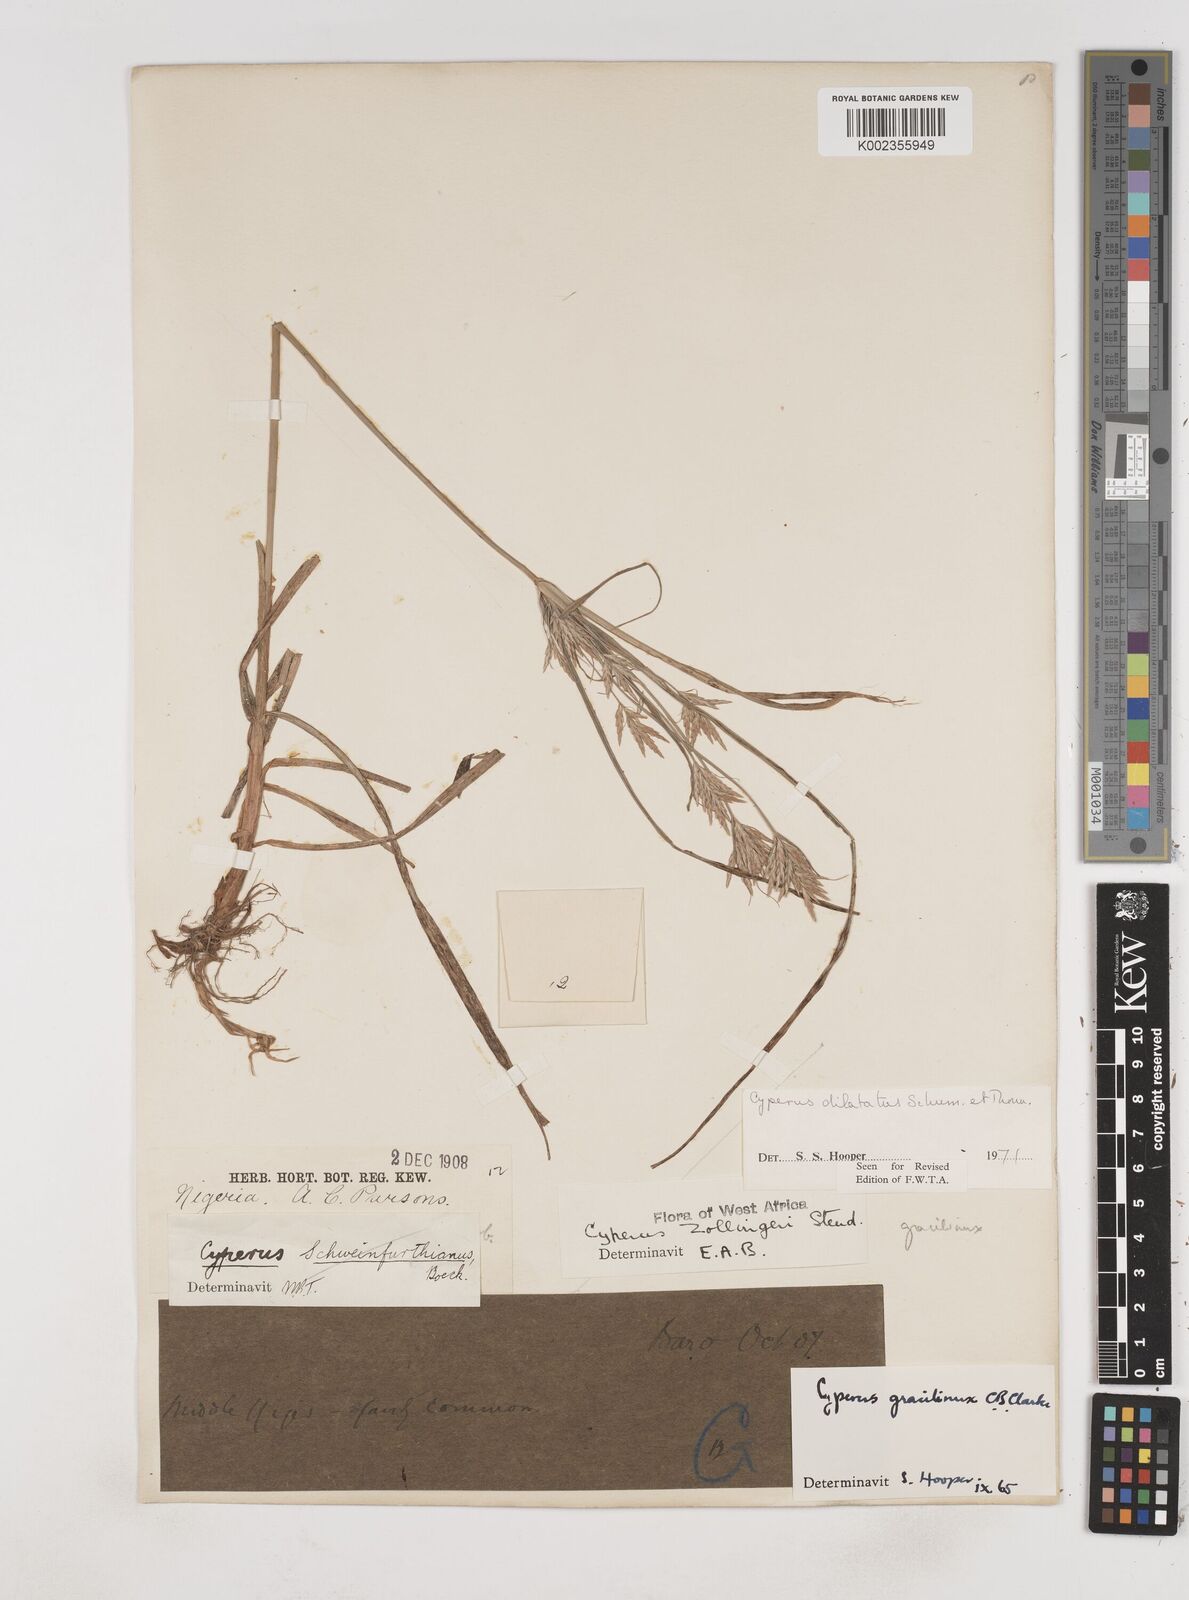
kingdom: Plantae
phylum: Tracheophyta
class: Liliopsida
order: Poales
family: Cyperaceae
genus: Cyperus
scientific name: Cyperus dilatatus
